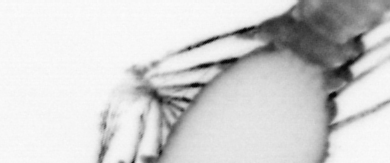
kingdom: Animalia
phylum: Annelida
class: Polychaeta
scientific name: Polychaeta
